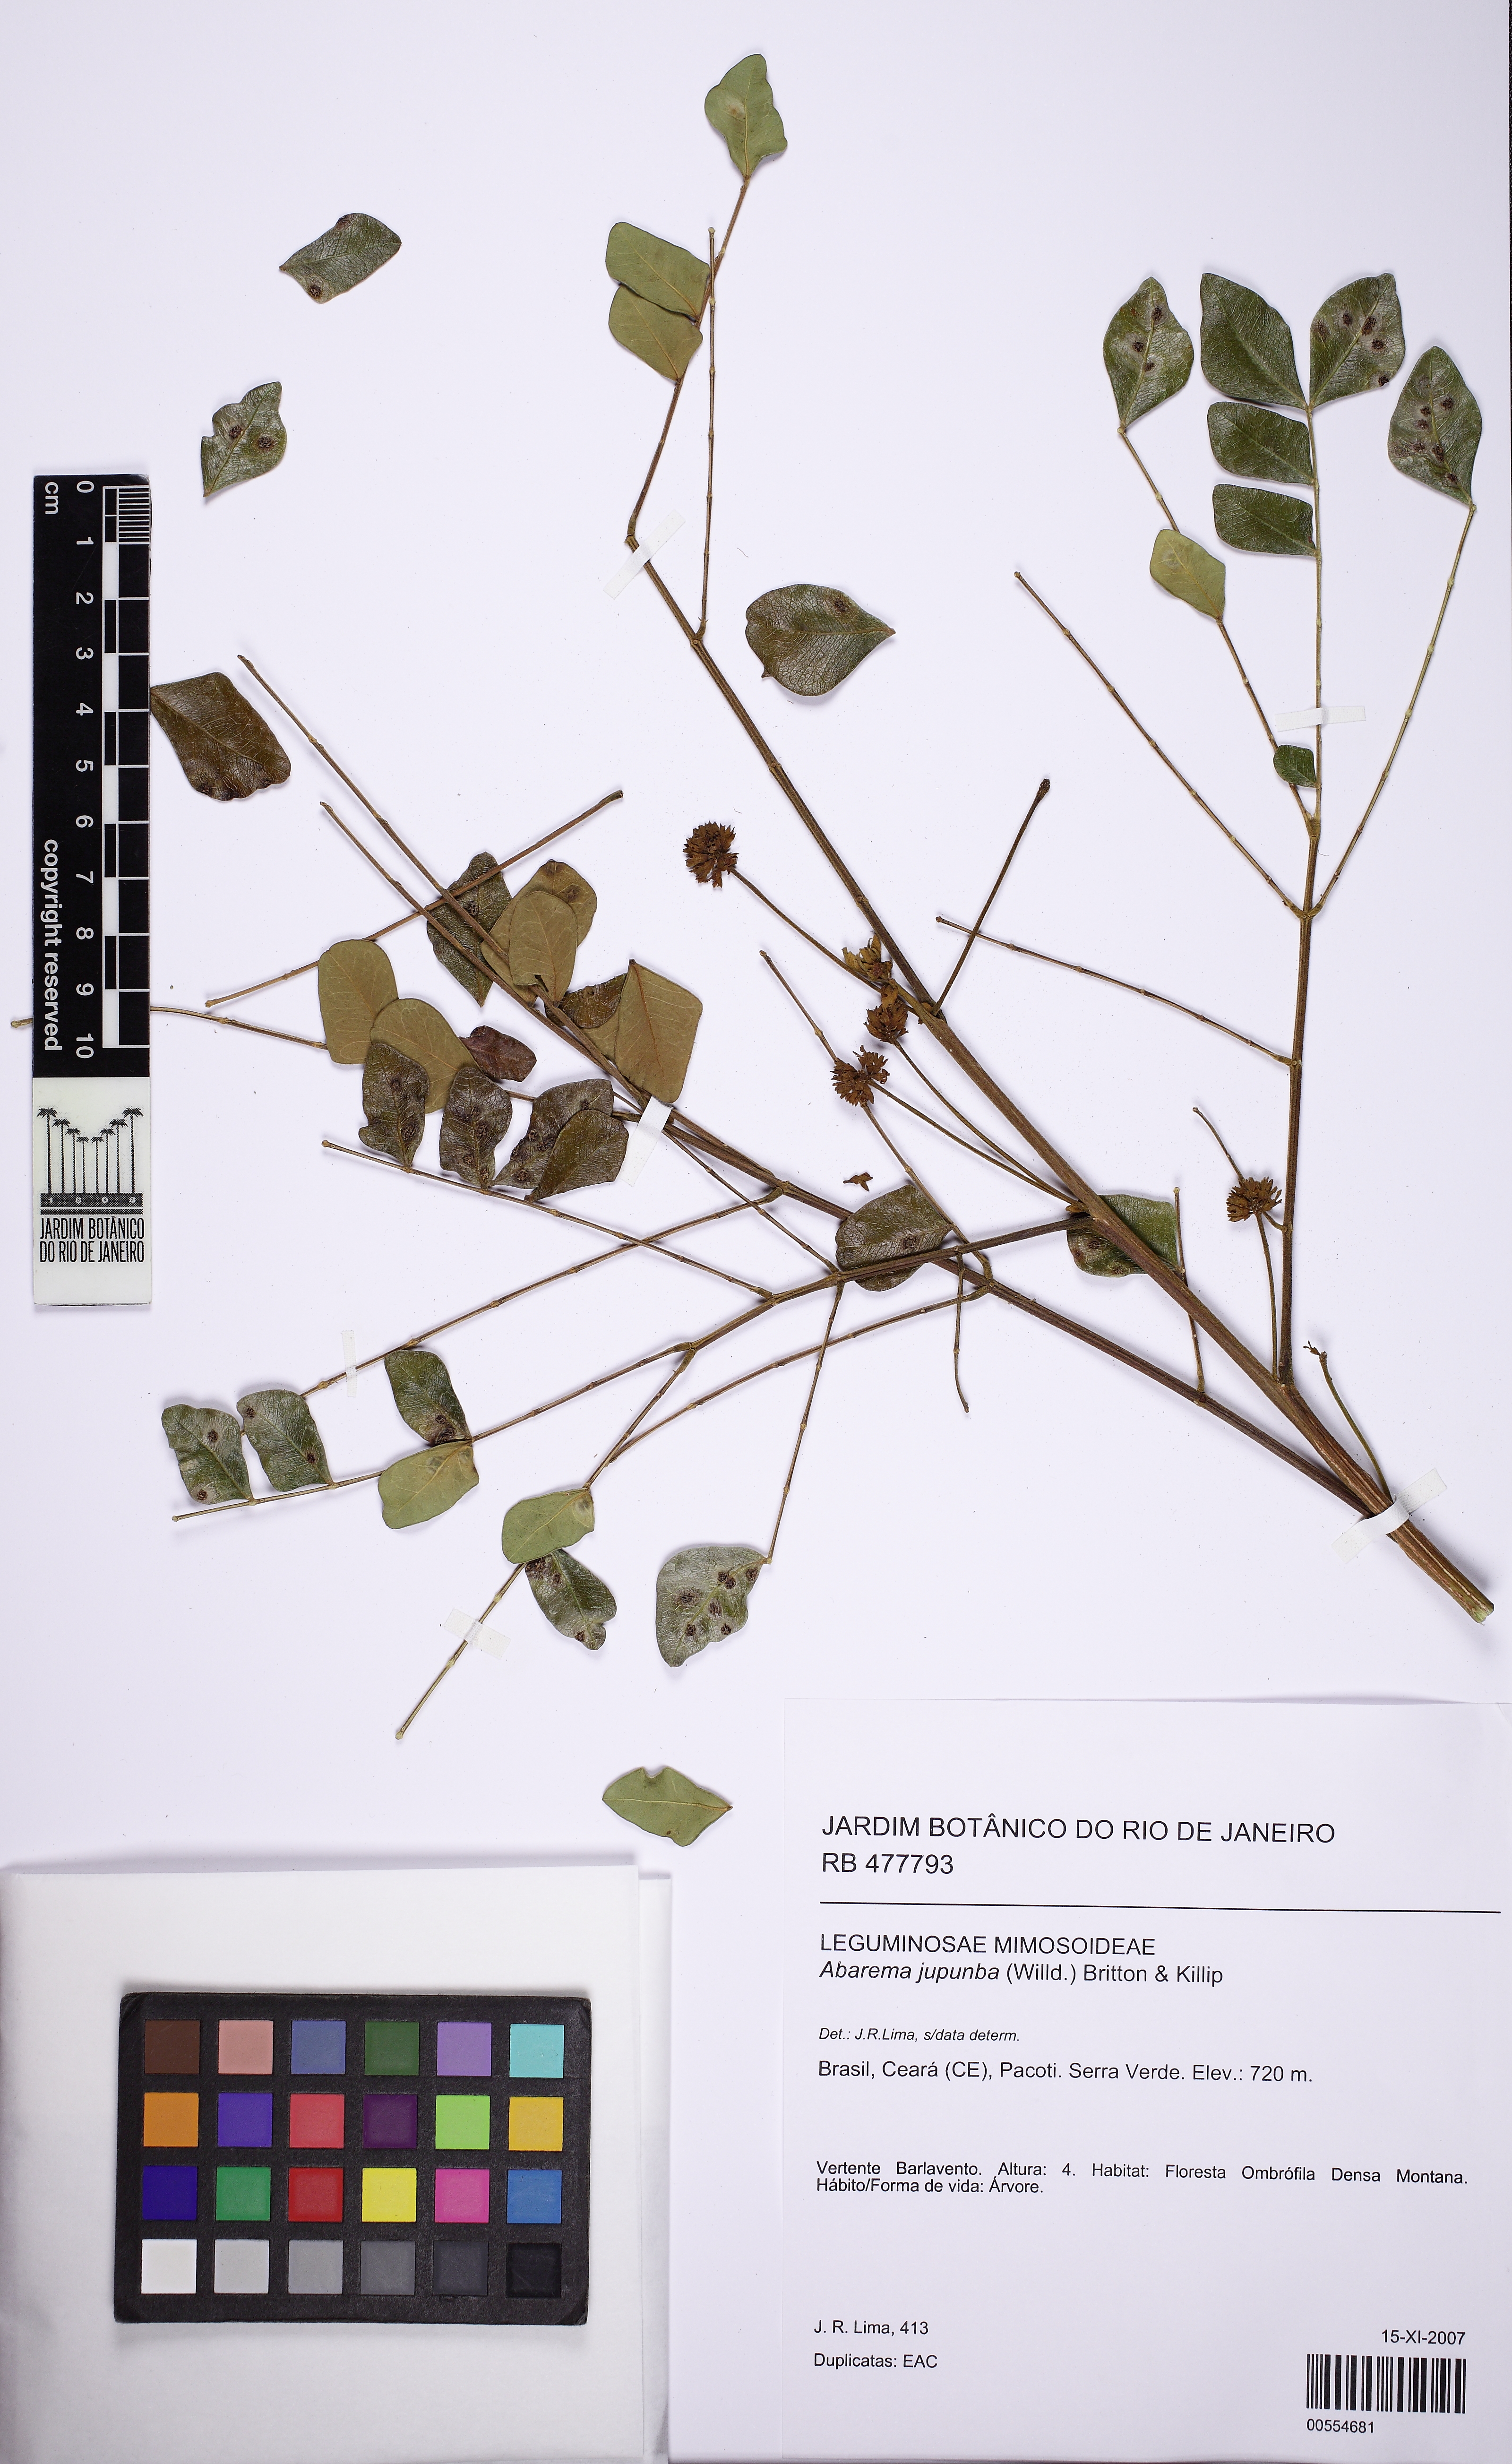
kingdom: Plantae
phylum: Tracheophyta
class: Magnoliopsida
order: Fabales
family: Fabaceae
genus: Jupunba
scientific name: Jupunba trapezifolia
